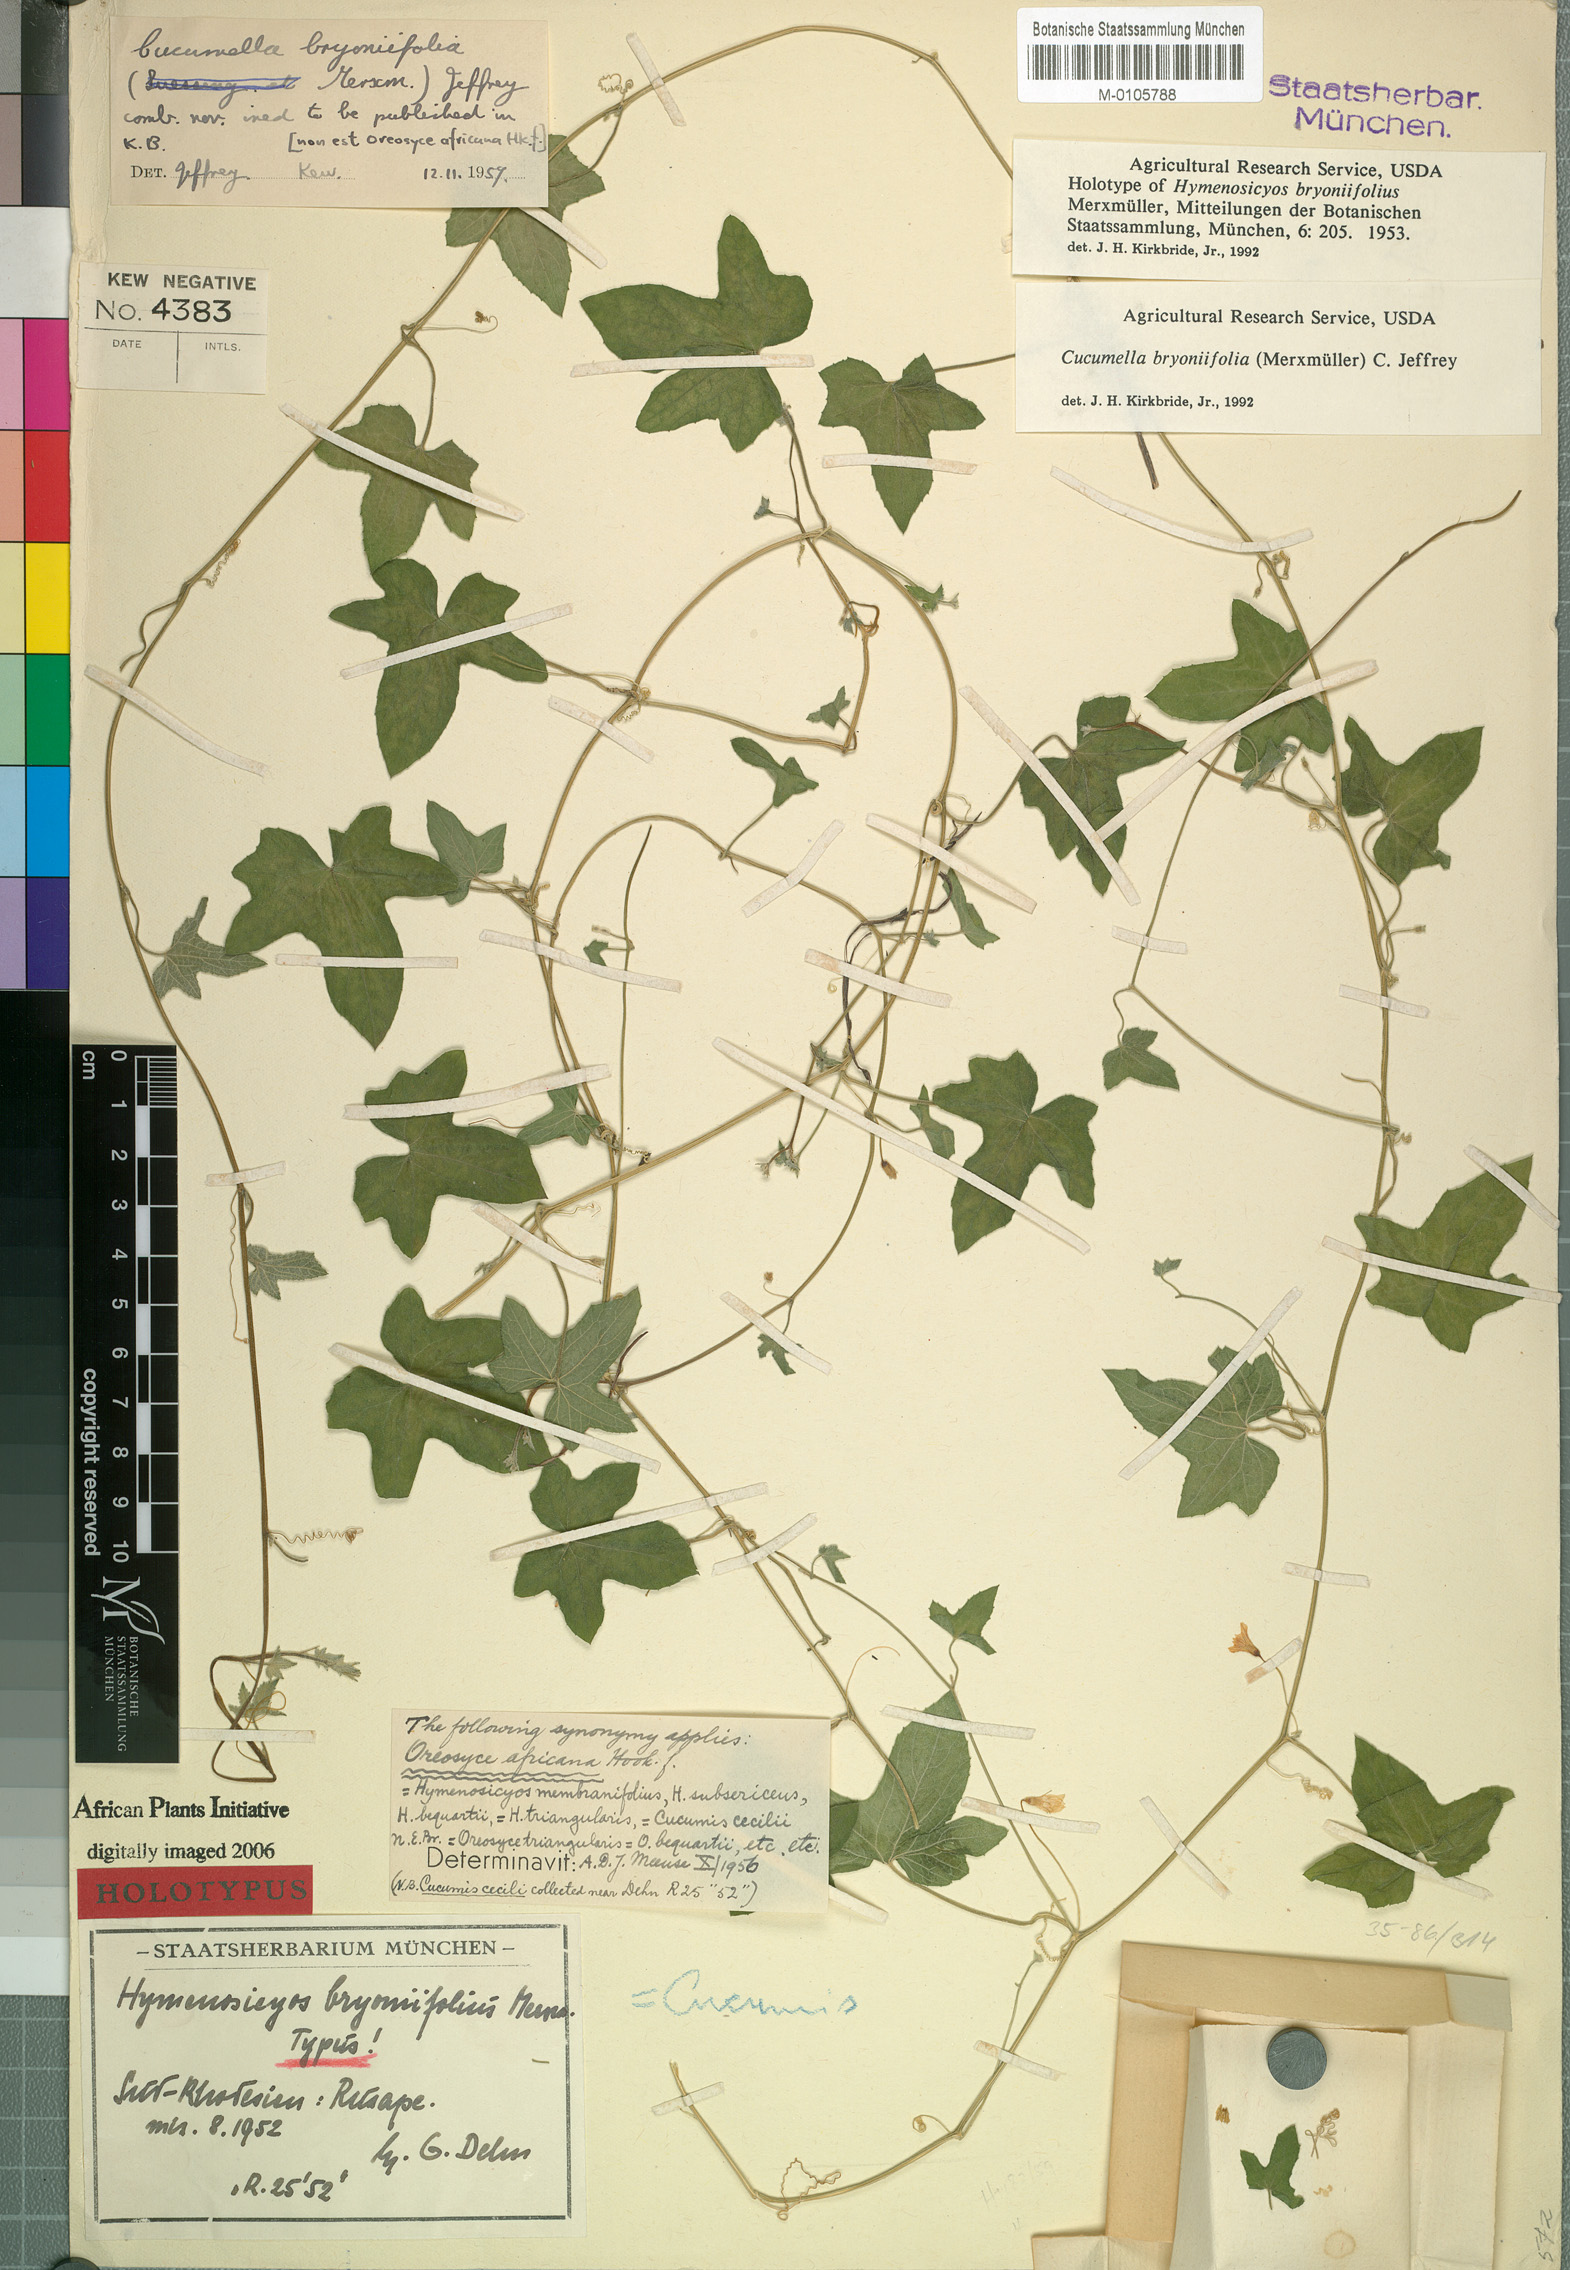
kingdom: Plantae
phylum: Tracheophyta
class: Magnoliopsida
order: Cucurbitales
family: Cucurbitaceae
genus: Cucumis
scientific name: Cucumis bryoniifolius
